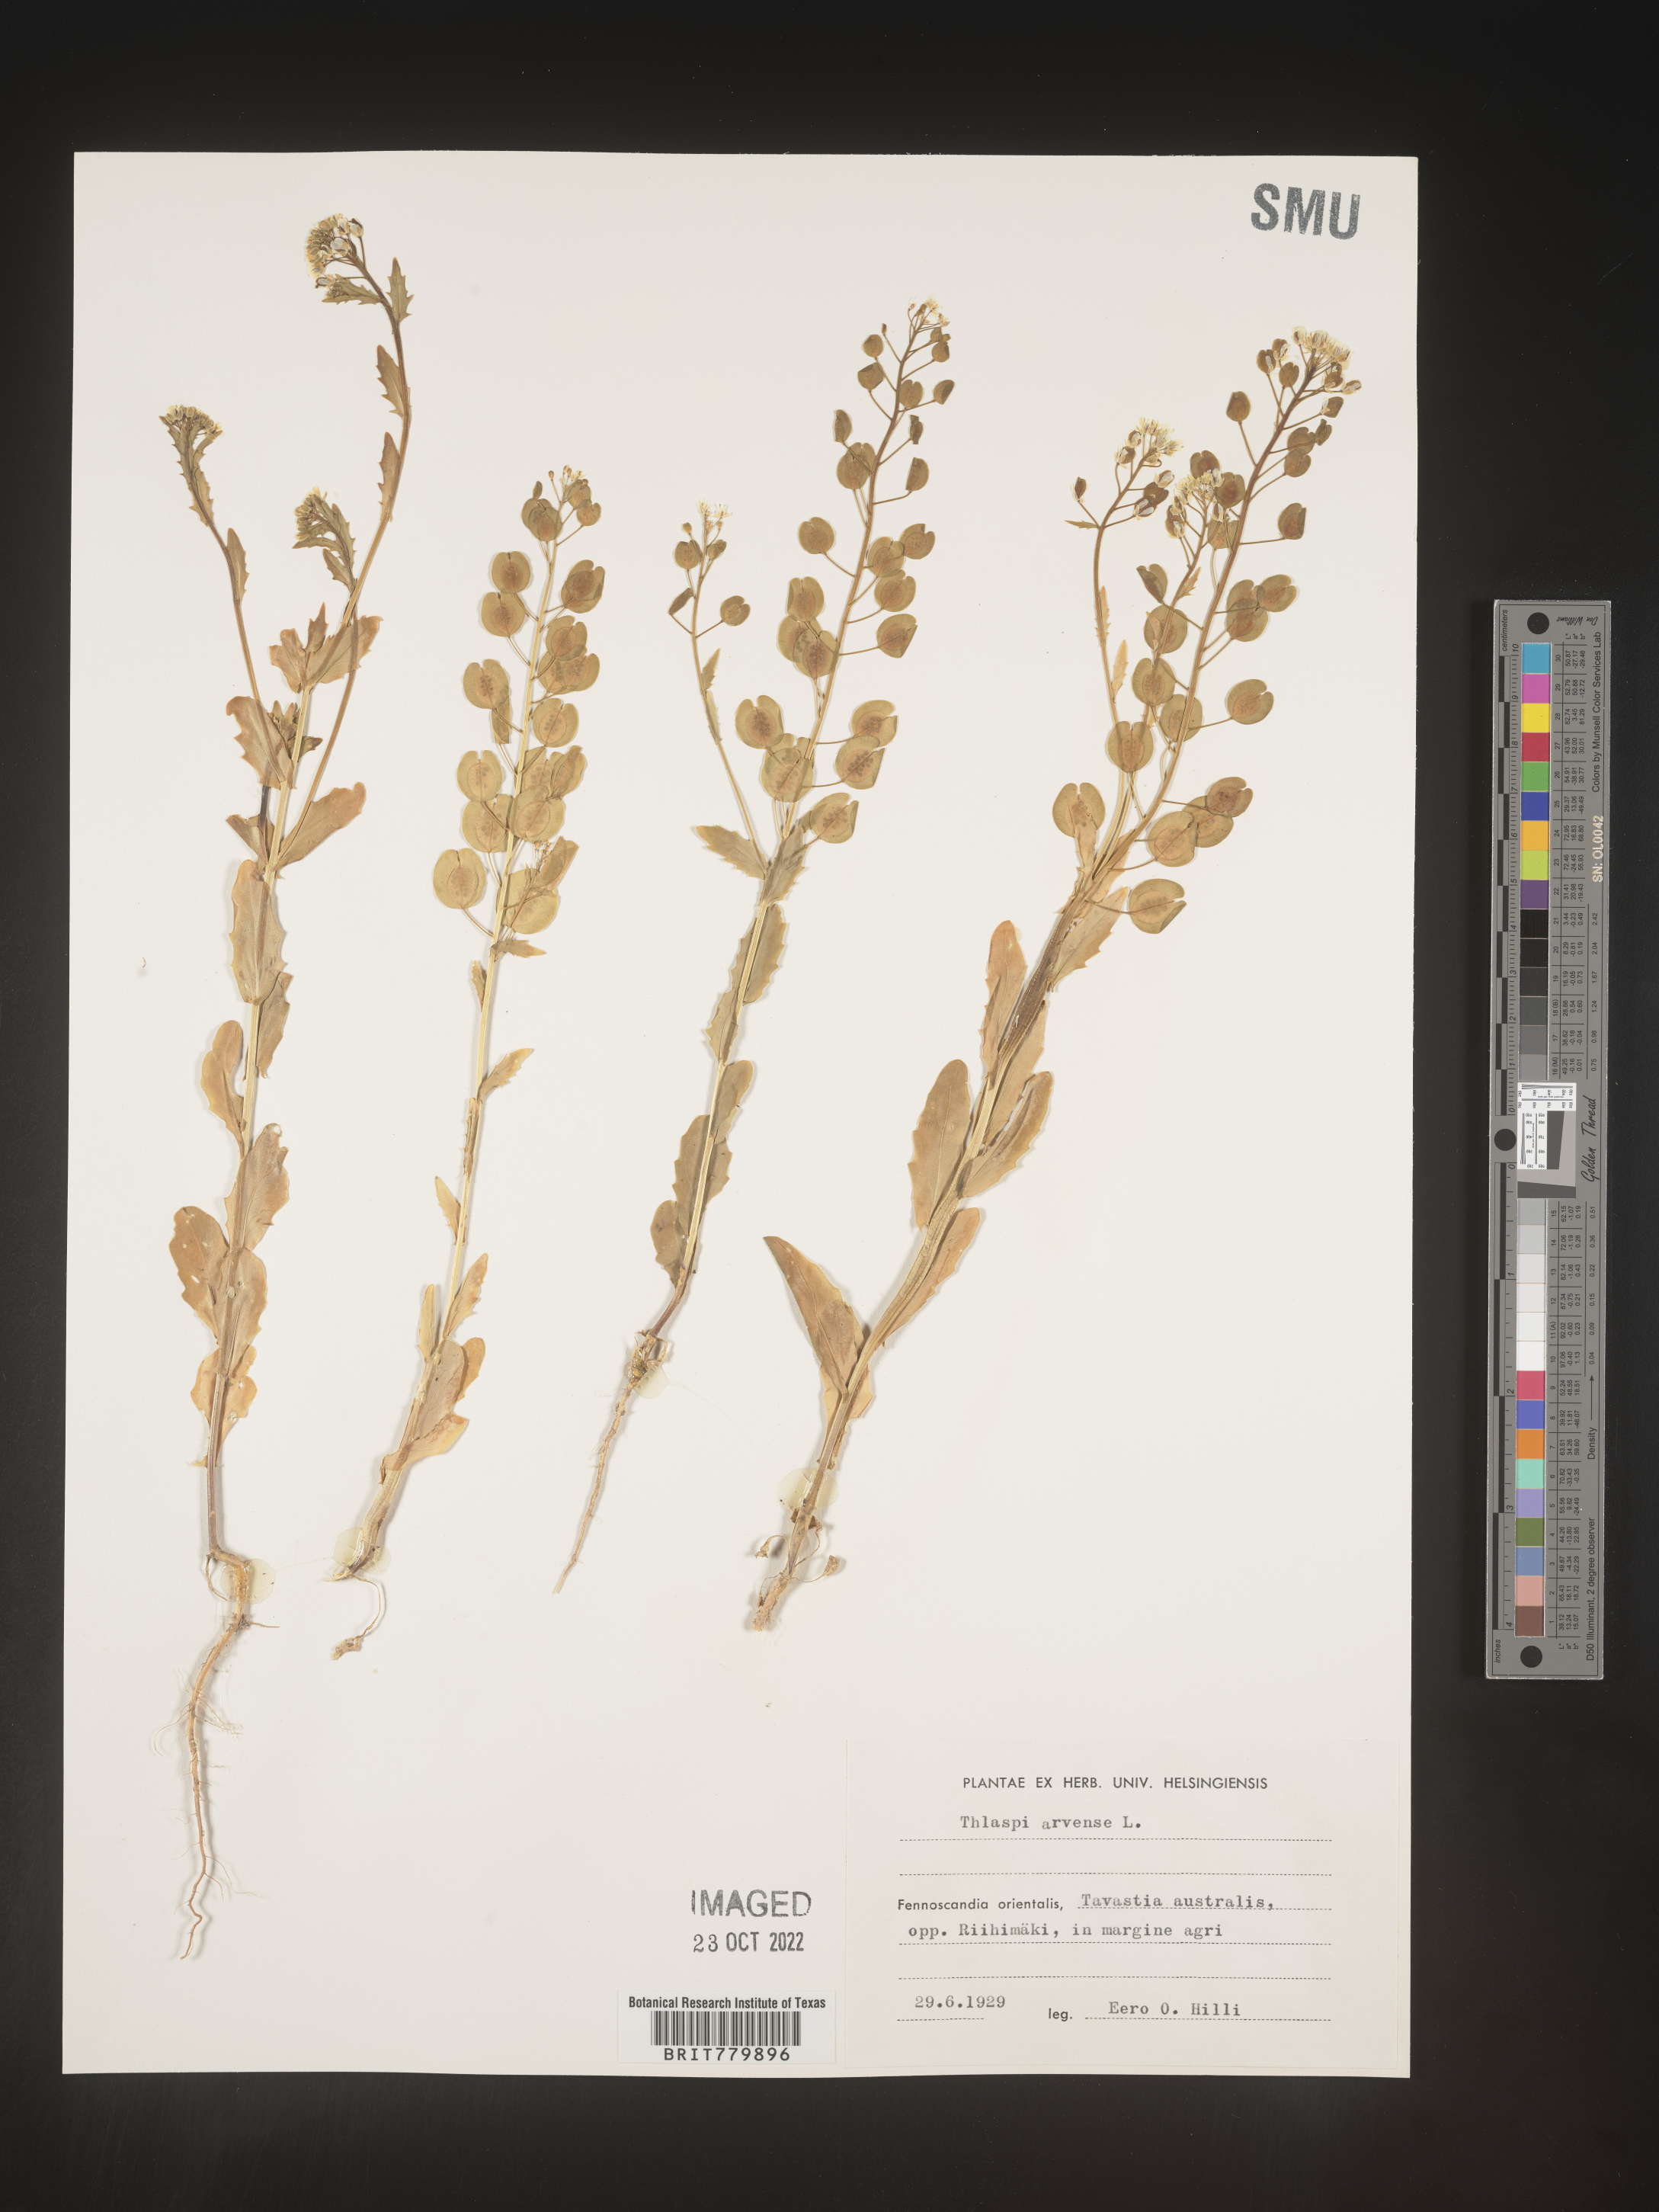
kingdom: Plantae
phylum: Tracheophyta
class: Magnoliopsida
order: Brassicales
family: Brassicaceae
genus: Thlaspi
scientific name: Thlaspi
